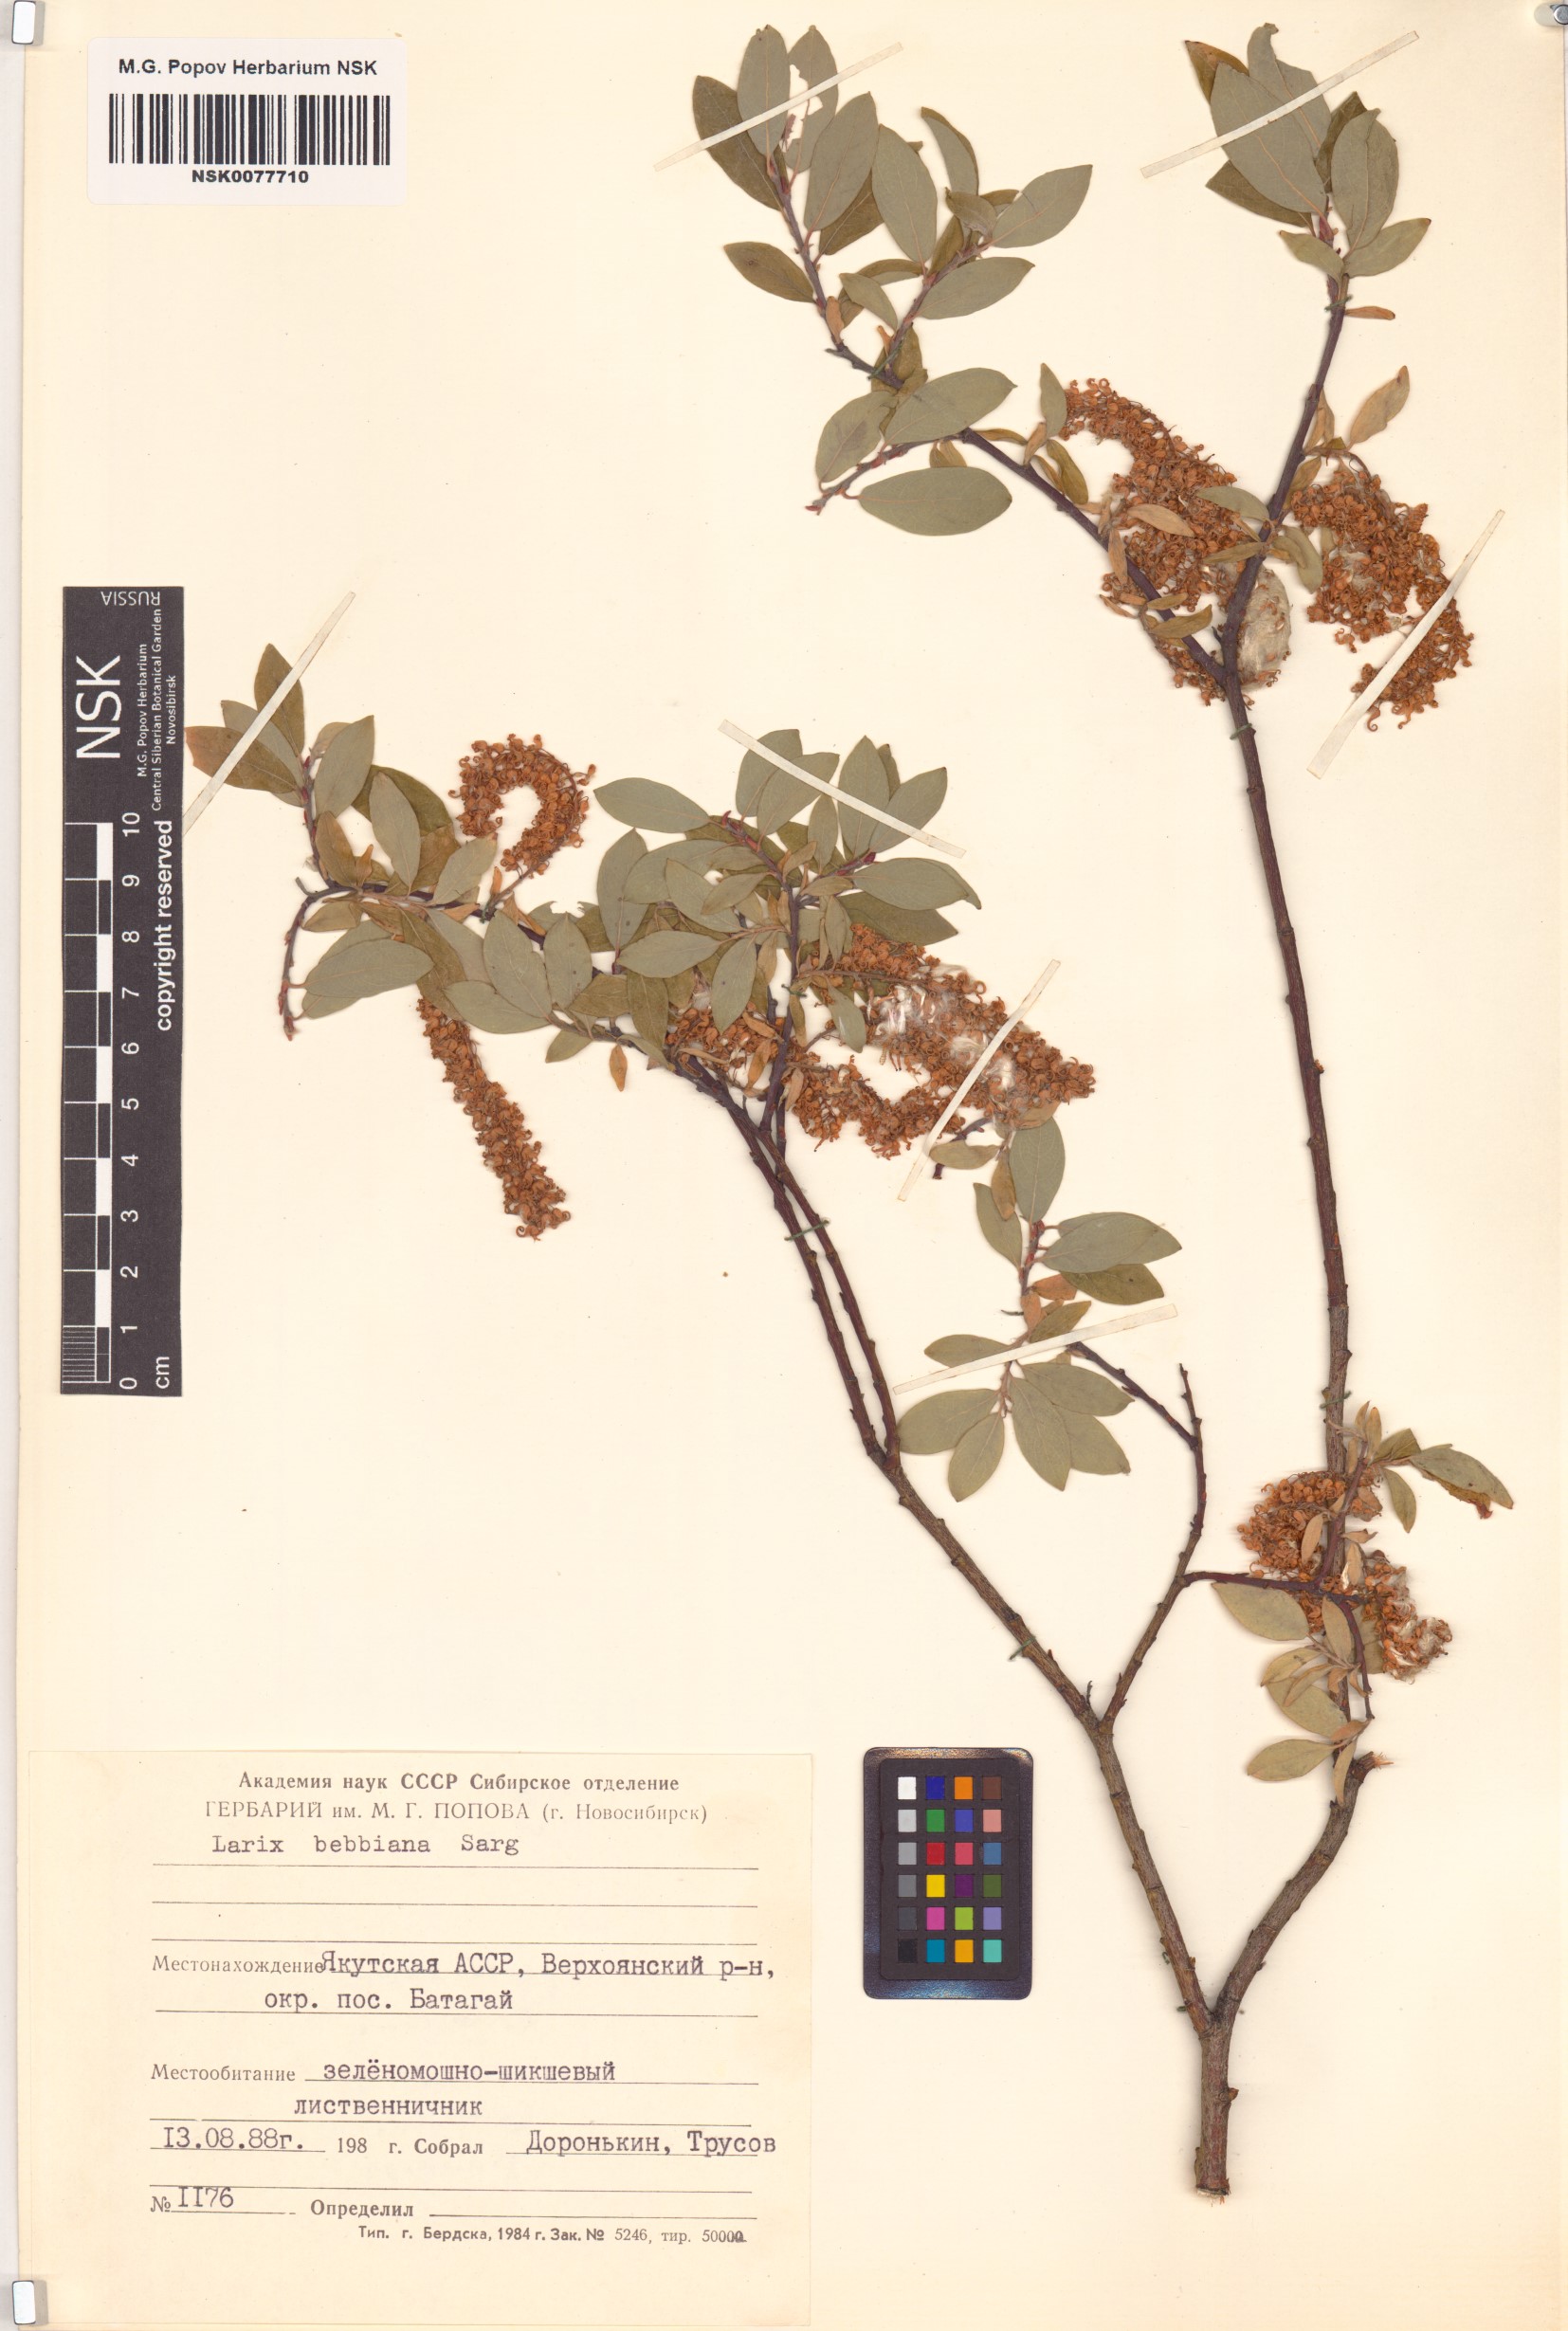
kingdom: Plantae
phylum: Tracheophyta
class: Magnoliopsida
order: Malpighiales
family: Salicaceae
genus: Salix
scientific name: Salix bebbiana
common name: Bebb's willow
